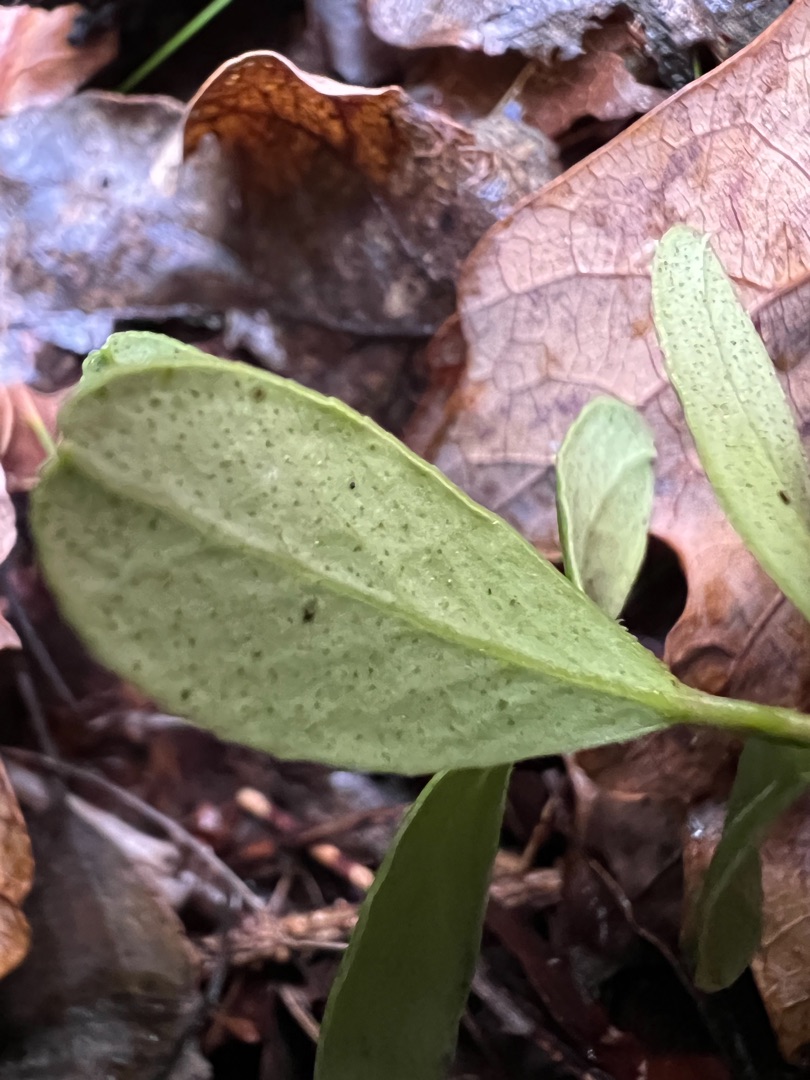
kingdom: Plantae
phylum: Tracheophyta
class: Magnoliopsida
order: Ericales
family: Ericaceae
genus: Vaccinium
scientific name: Vaccinium vitis-idaea
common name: Tyttebær
